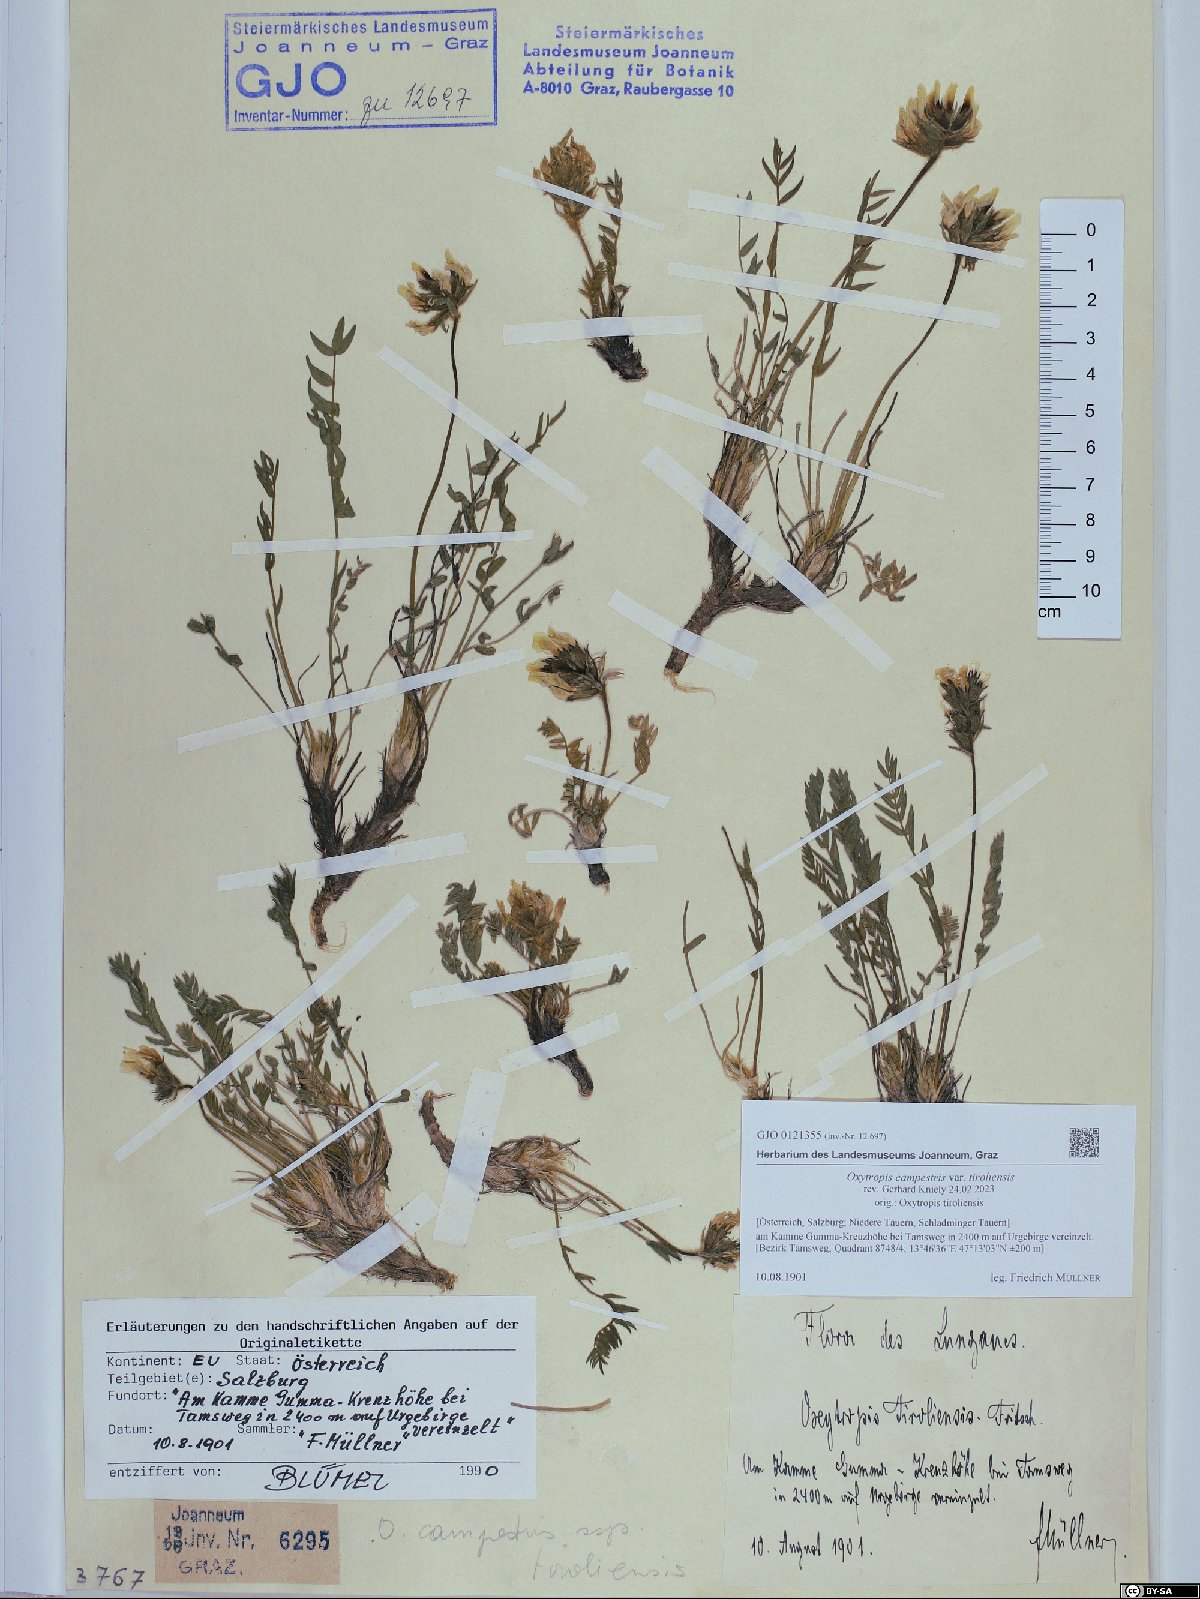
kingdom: Plantae
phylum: Tracheophyta
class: Magnoliopsida
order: Fabales
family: Fabaceae
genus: Oxytropis
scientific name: Oxytropis campestris
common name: Field locoweed
